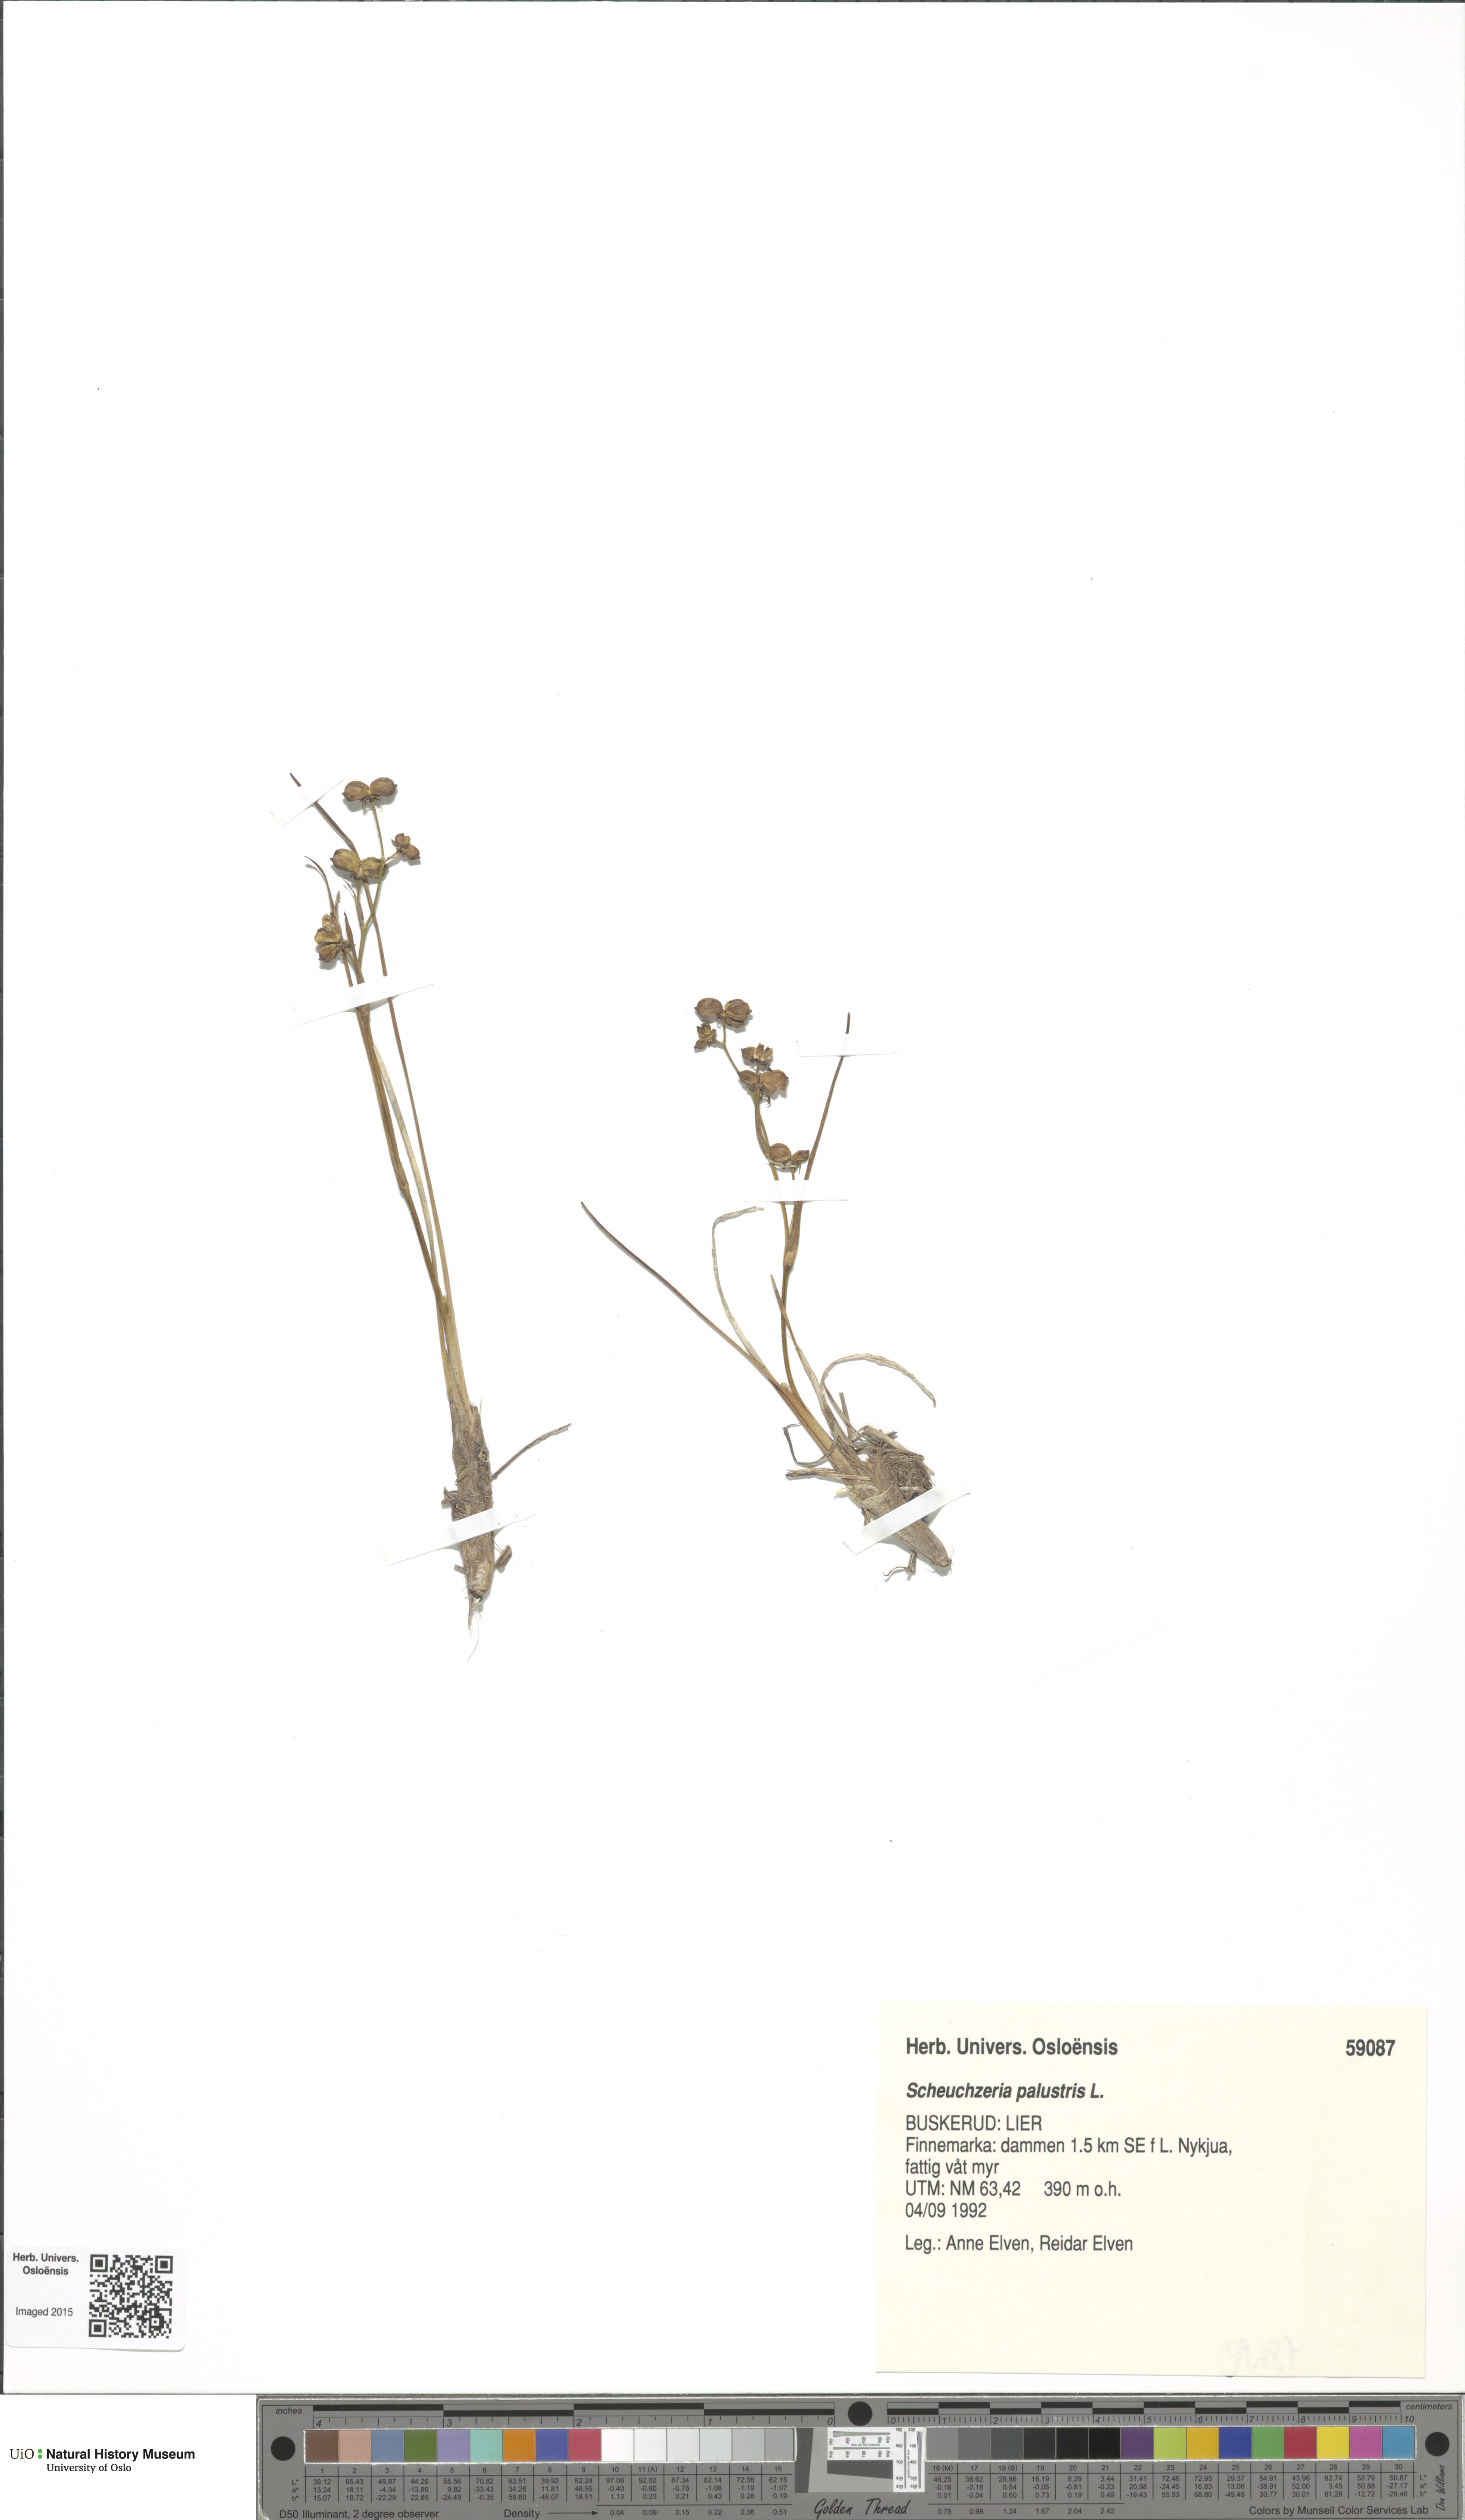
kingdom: Plantae
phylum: Tracheophyta
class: Liliopsida
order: Alismatales
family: Scheuchzeriaceae
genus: Scheuchzeria
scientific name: Scheuchzeria palustris
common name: Rannoch-rush
